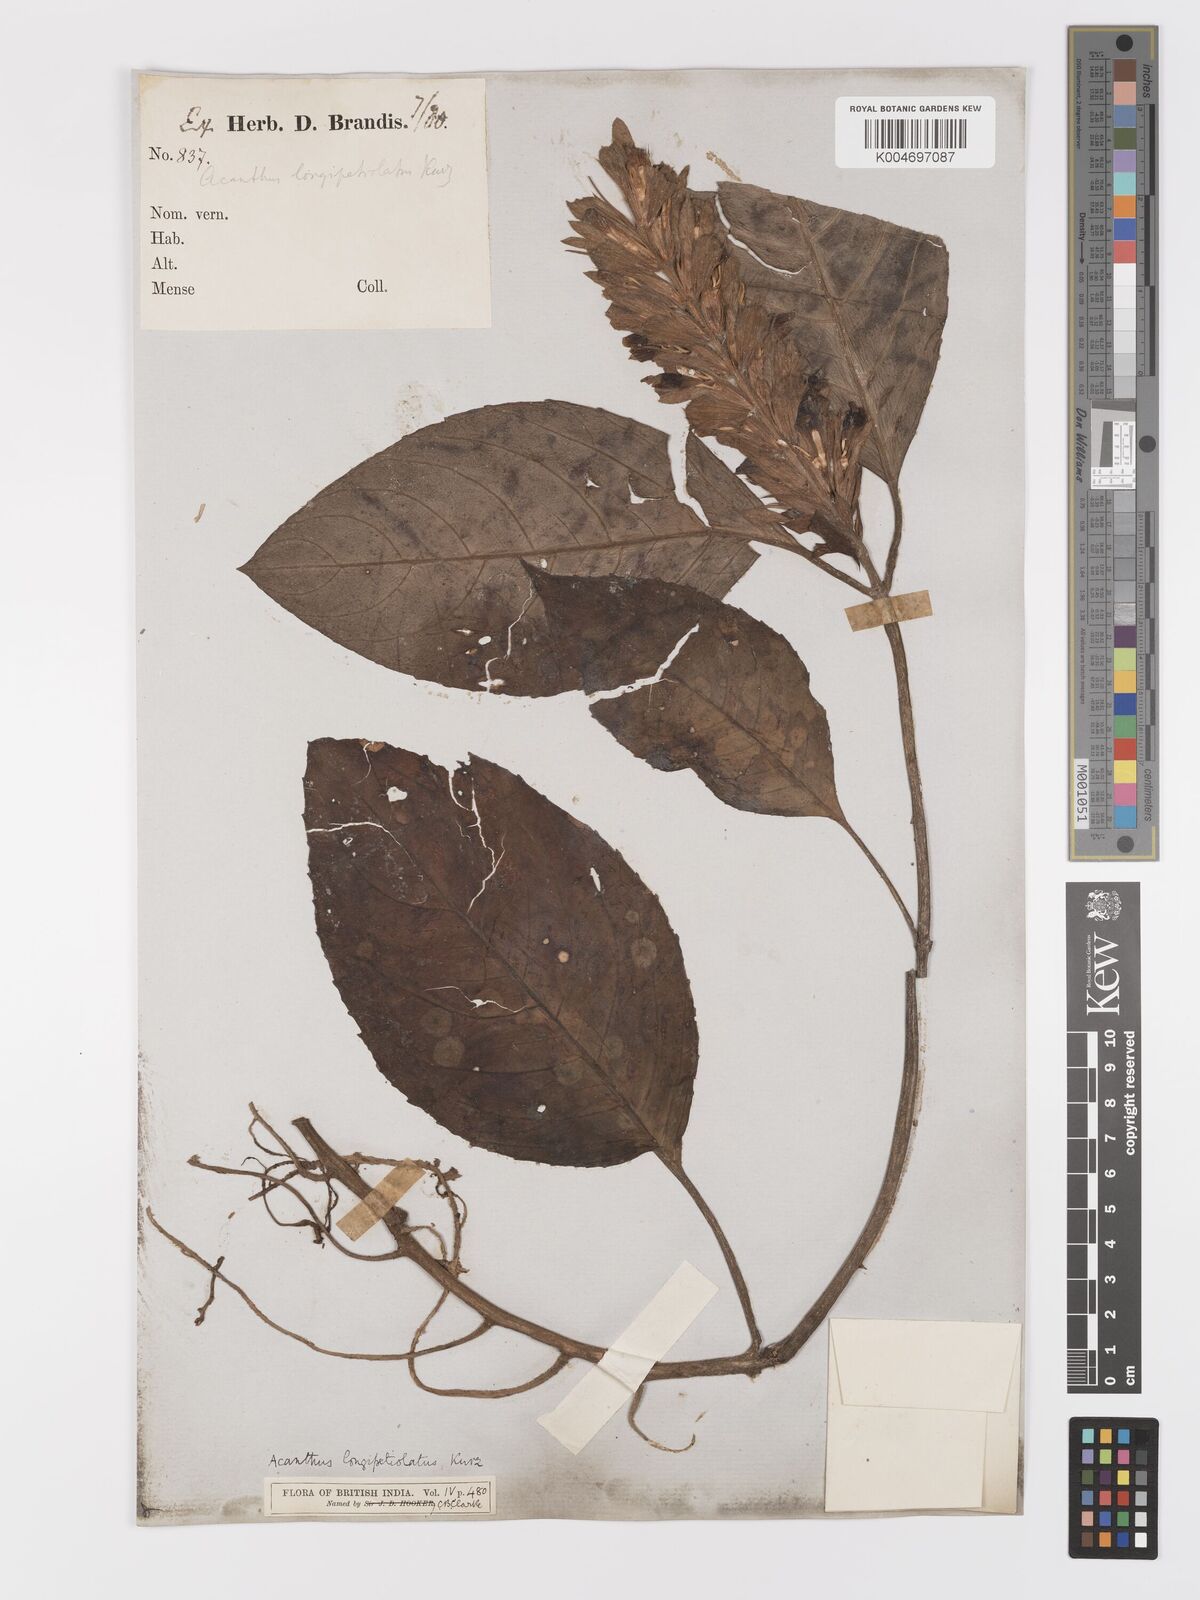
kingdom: Plantae
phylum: Tracheophyta
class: Magnoliopsida
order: Lamiales
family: Acanthaceae
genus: Acanthus
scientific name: Acanthus longibracteatus
